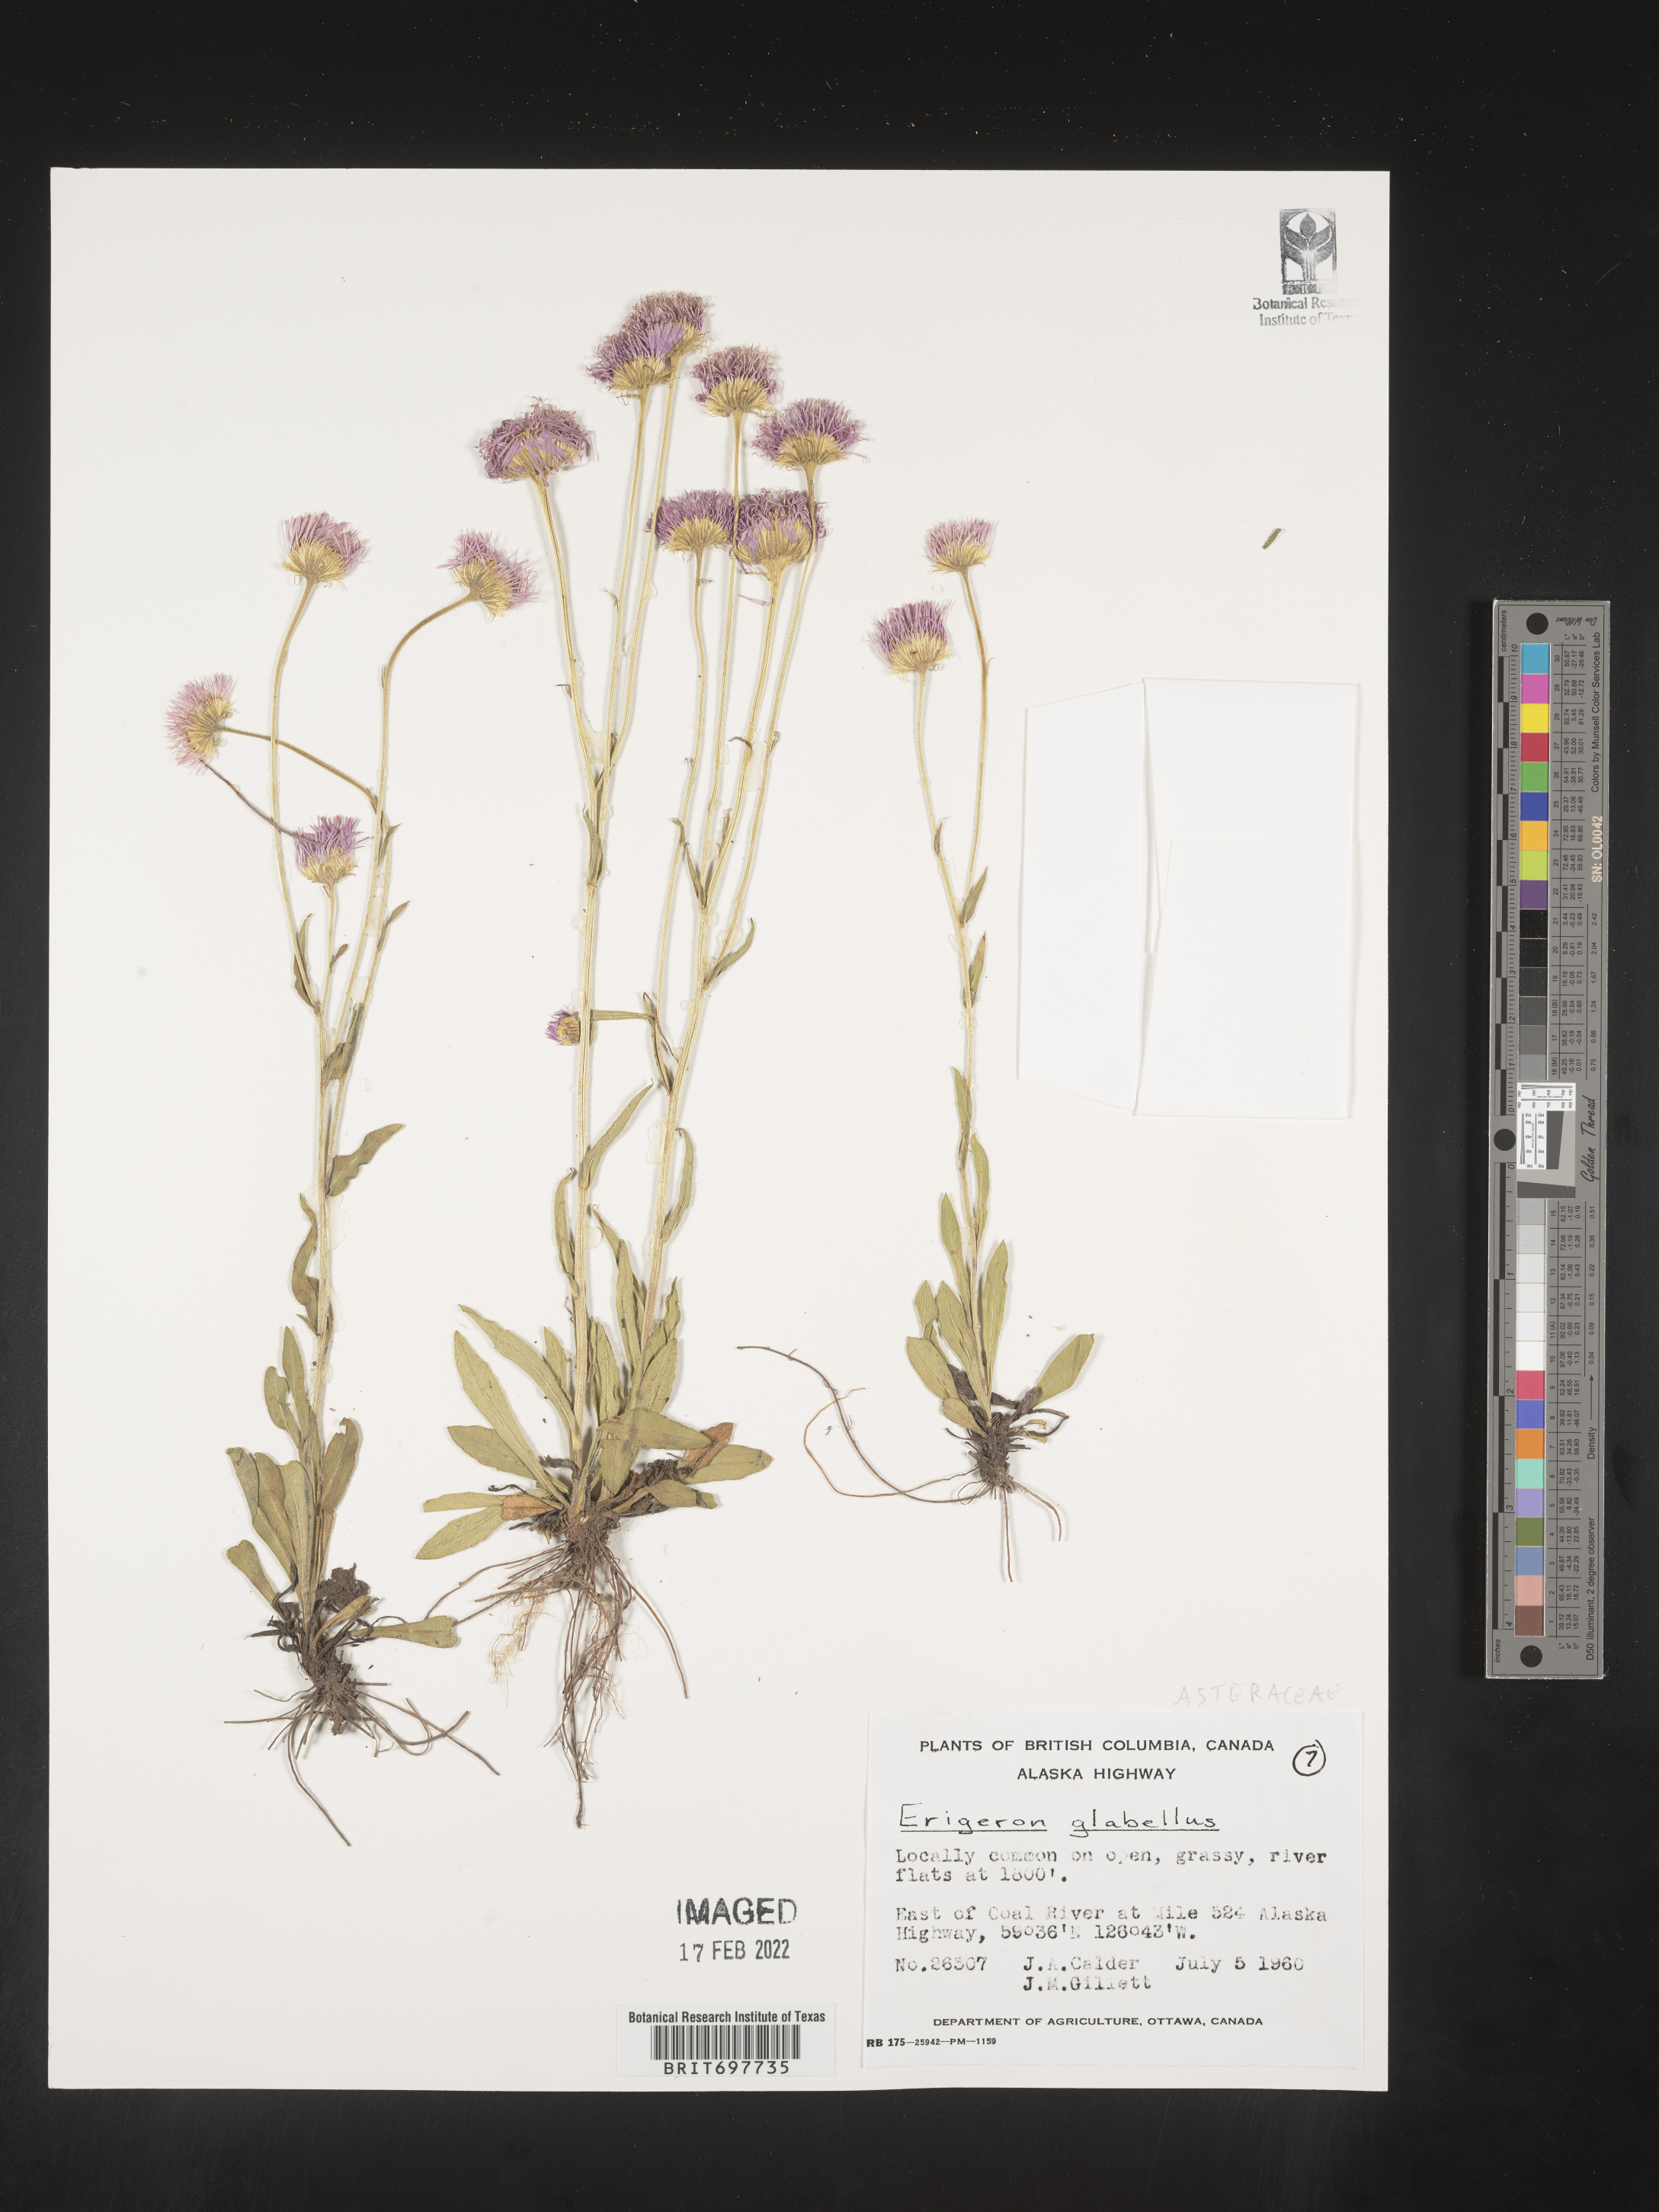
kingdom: Plantae
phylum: Tracheophyta
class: Magnoliopsida
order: Asterales
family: Asteraceae
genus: Erigeron
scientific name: Erigeron glabellus
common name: Smooth fleabane
